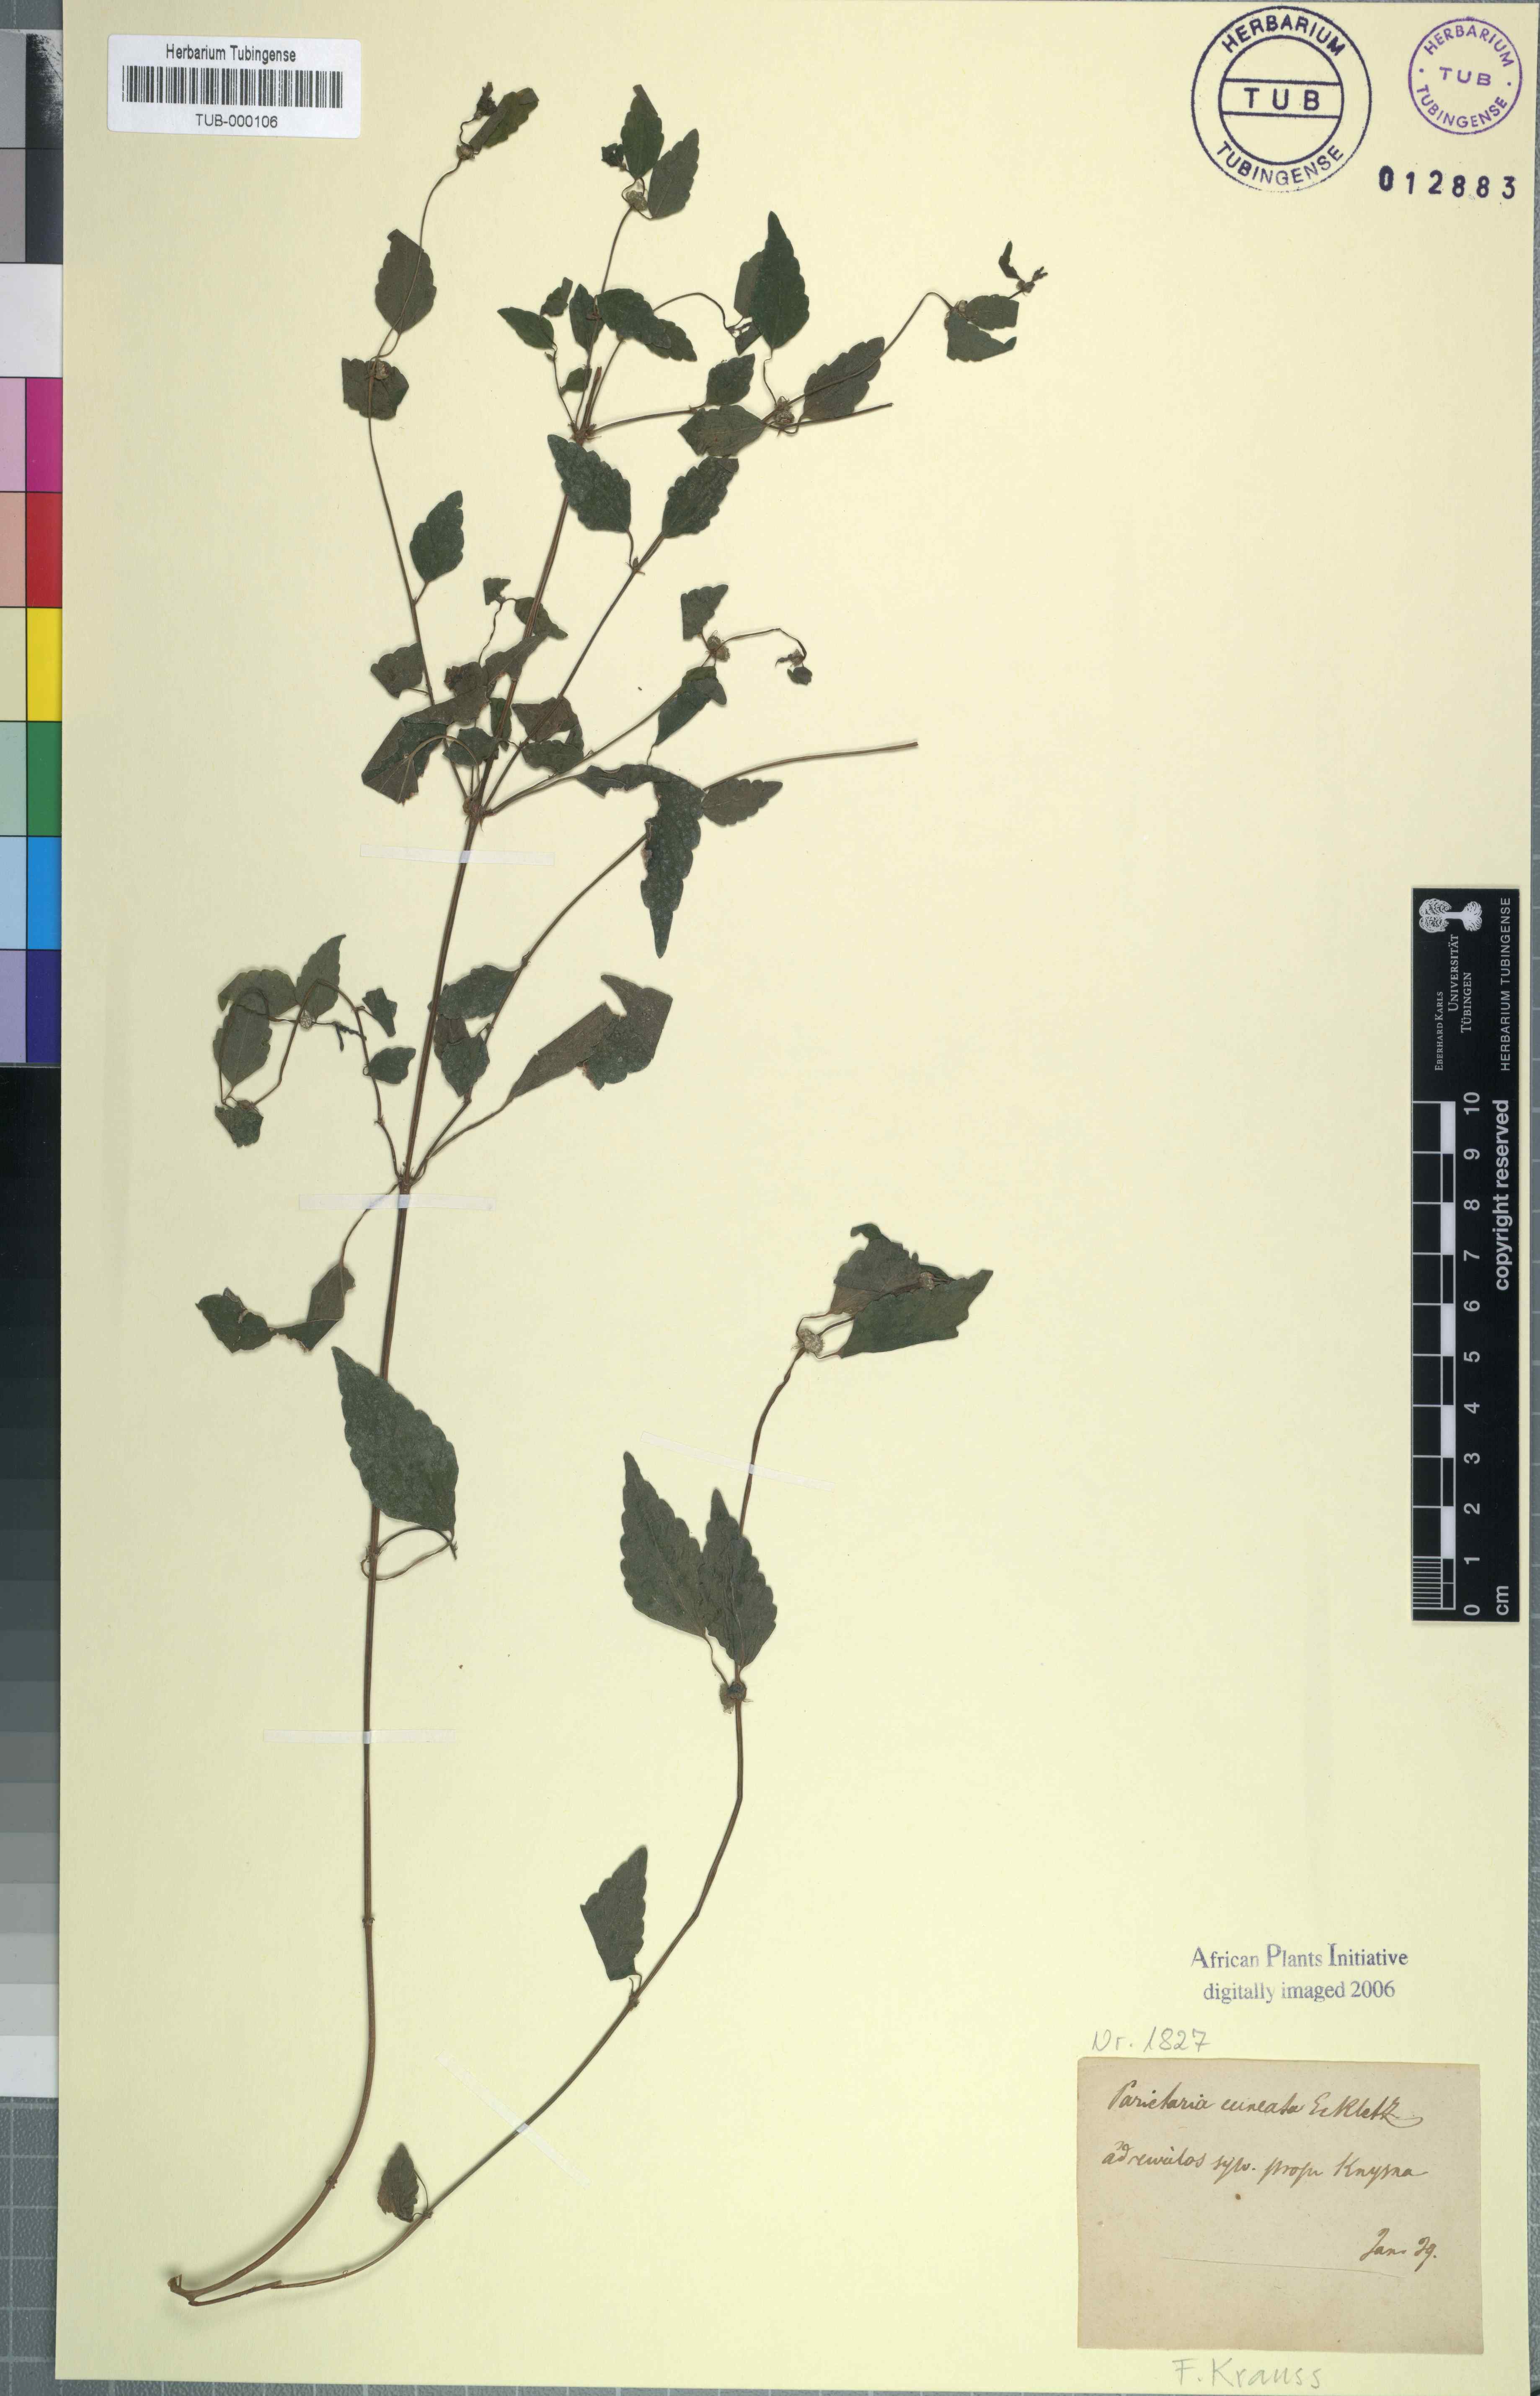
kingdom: Plantae
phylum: Tracheophyta
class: Magnoliopsida
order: Rosales
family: Urticaceae
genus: Droguetia
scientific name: Droguetia ambigua
